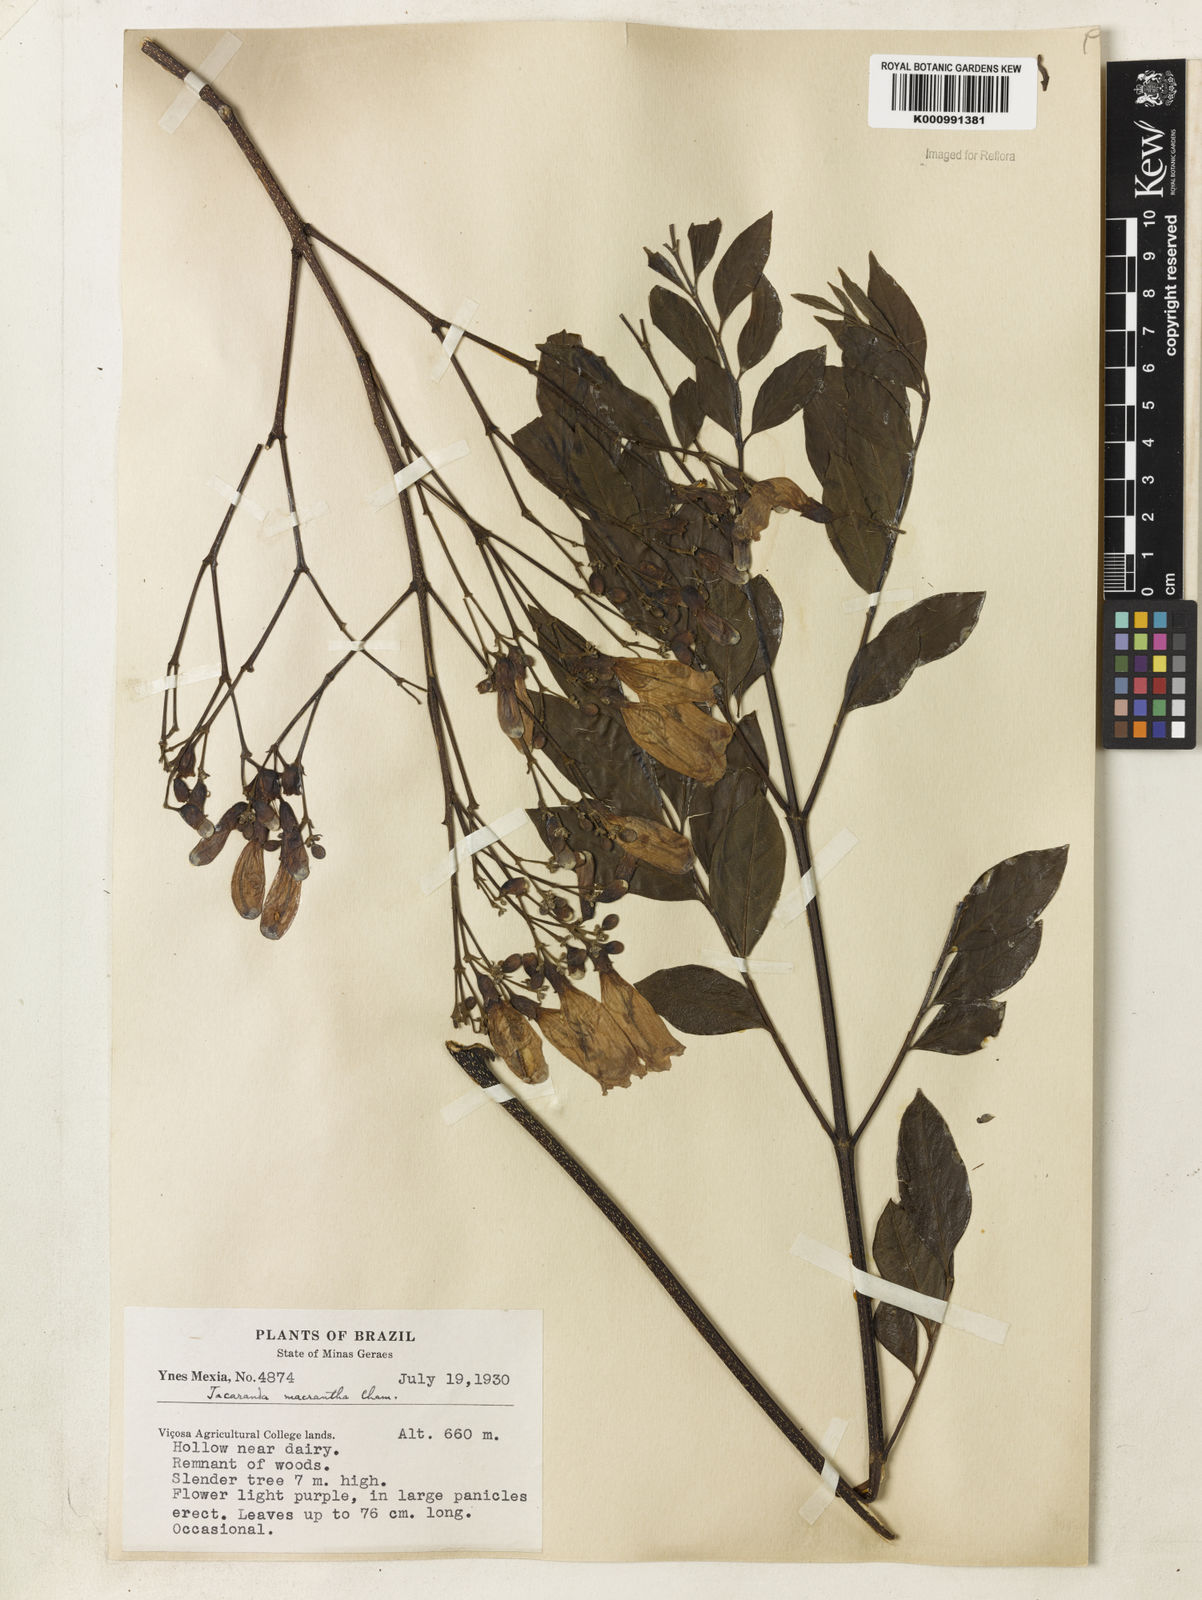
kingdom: Plantae
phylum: Tracheophyta
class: Magnoliopsida
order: Lamiales
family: Bignoniaceae
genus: Jacaranda
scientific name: Jacaranda micrantha
